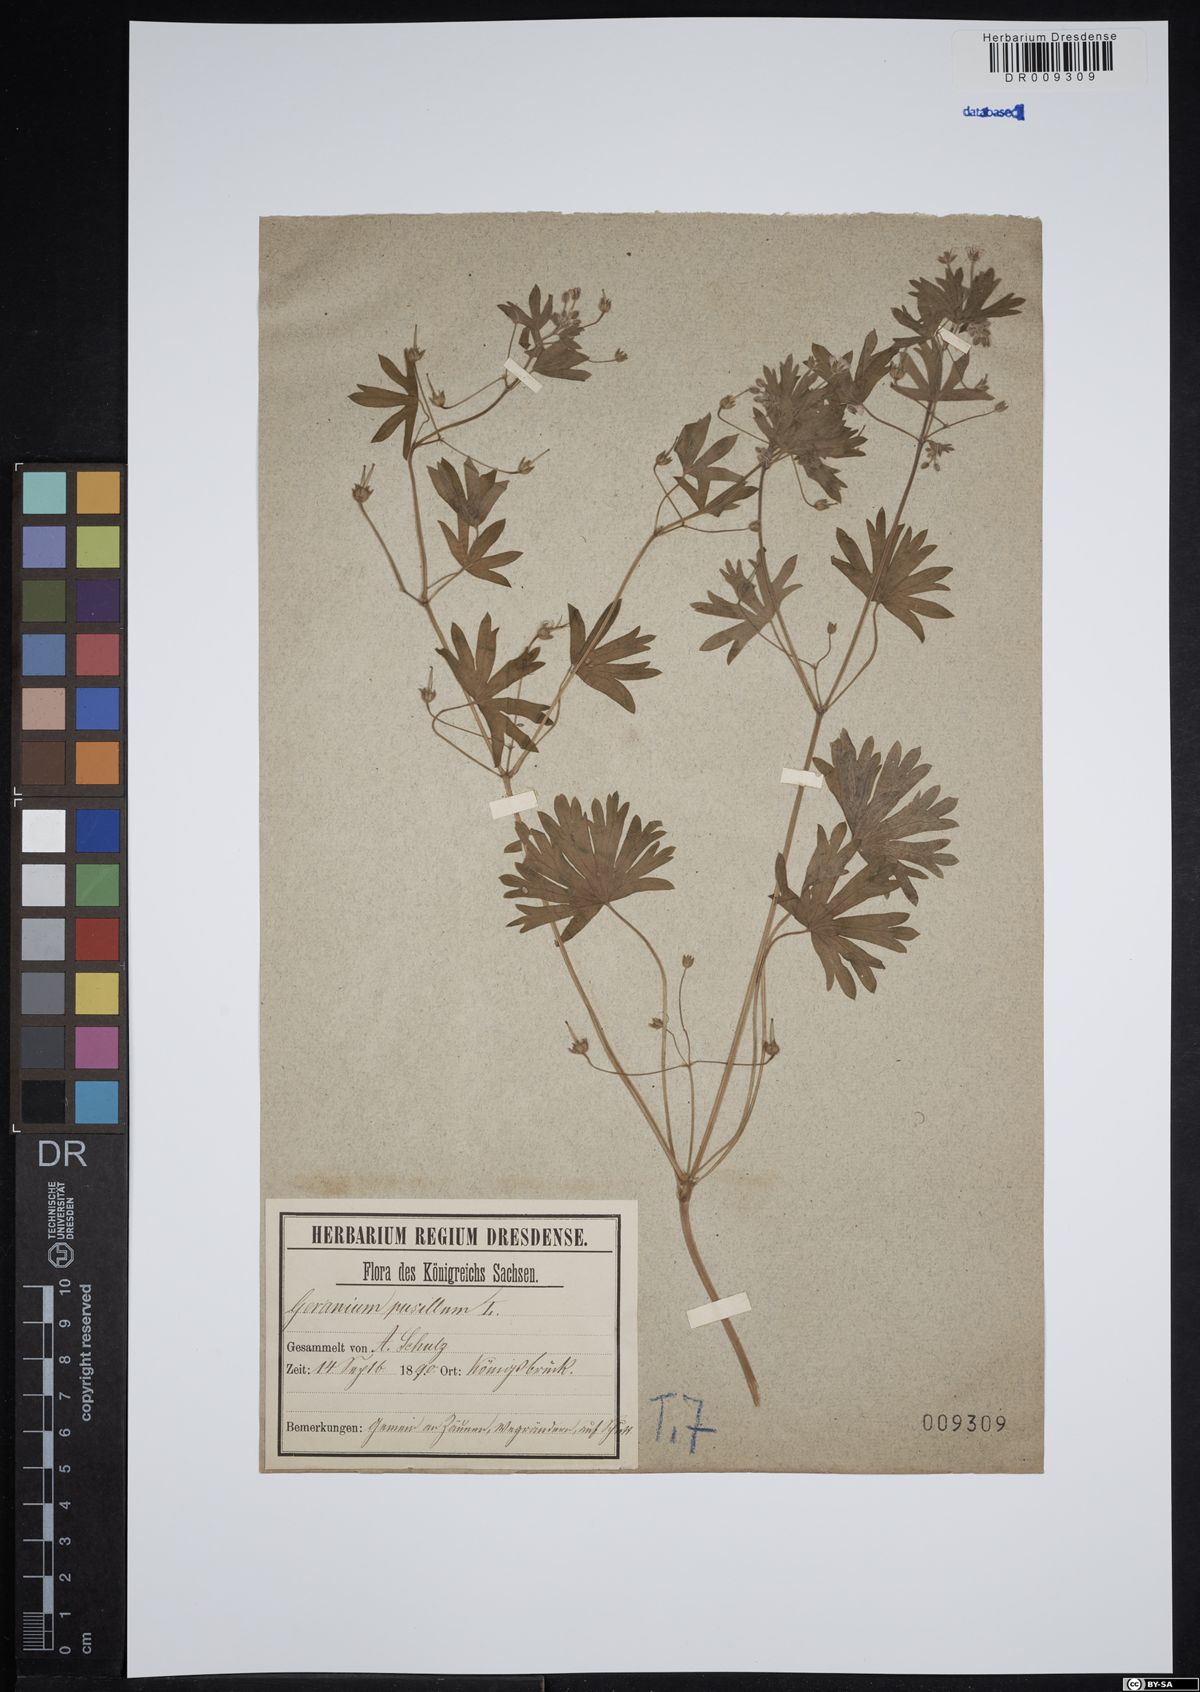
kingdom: Plantae
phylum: Tracheophyta
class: Magnoliopsida
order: Geraniales
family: Geraniaceae
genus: Geranium
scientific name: Geranium pusillum
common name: Small geranium
